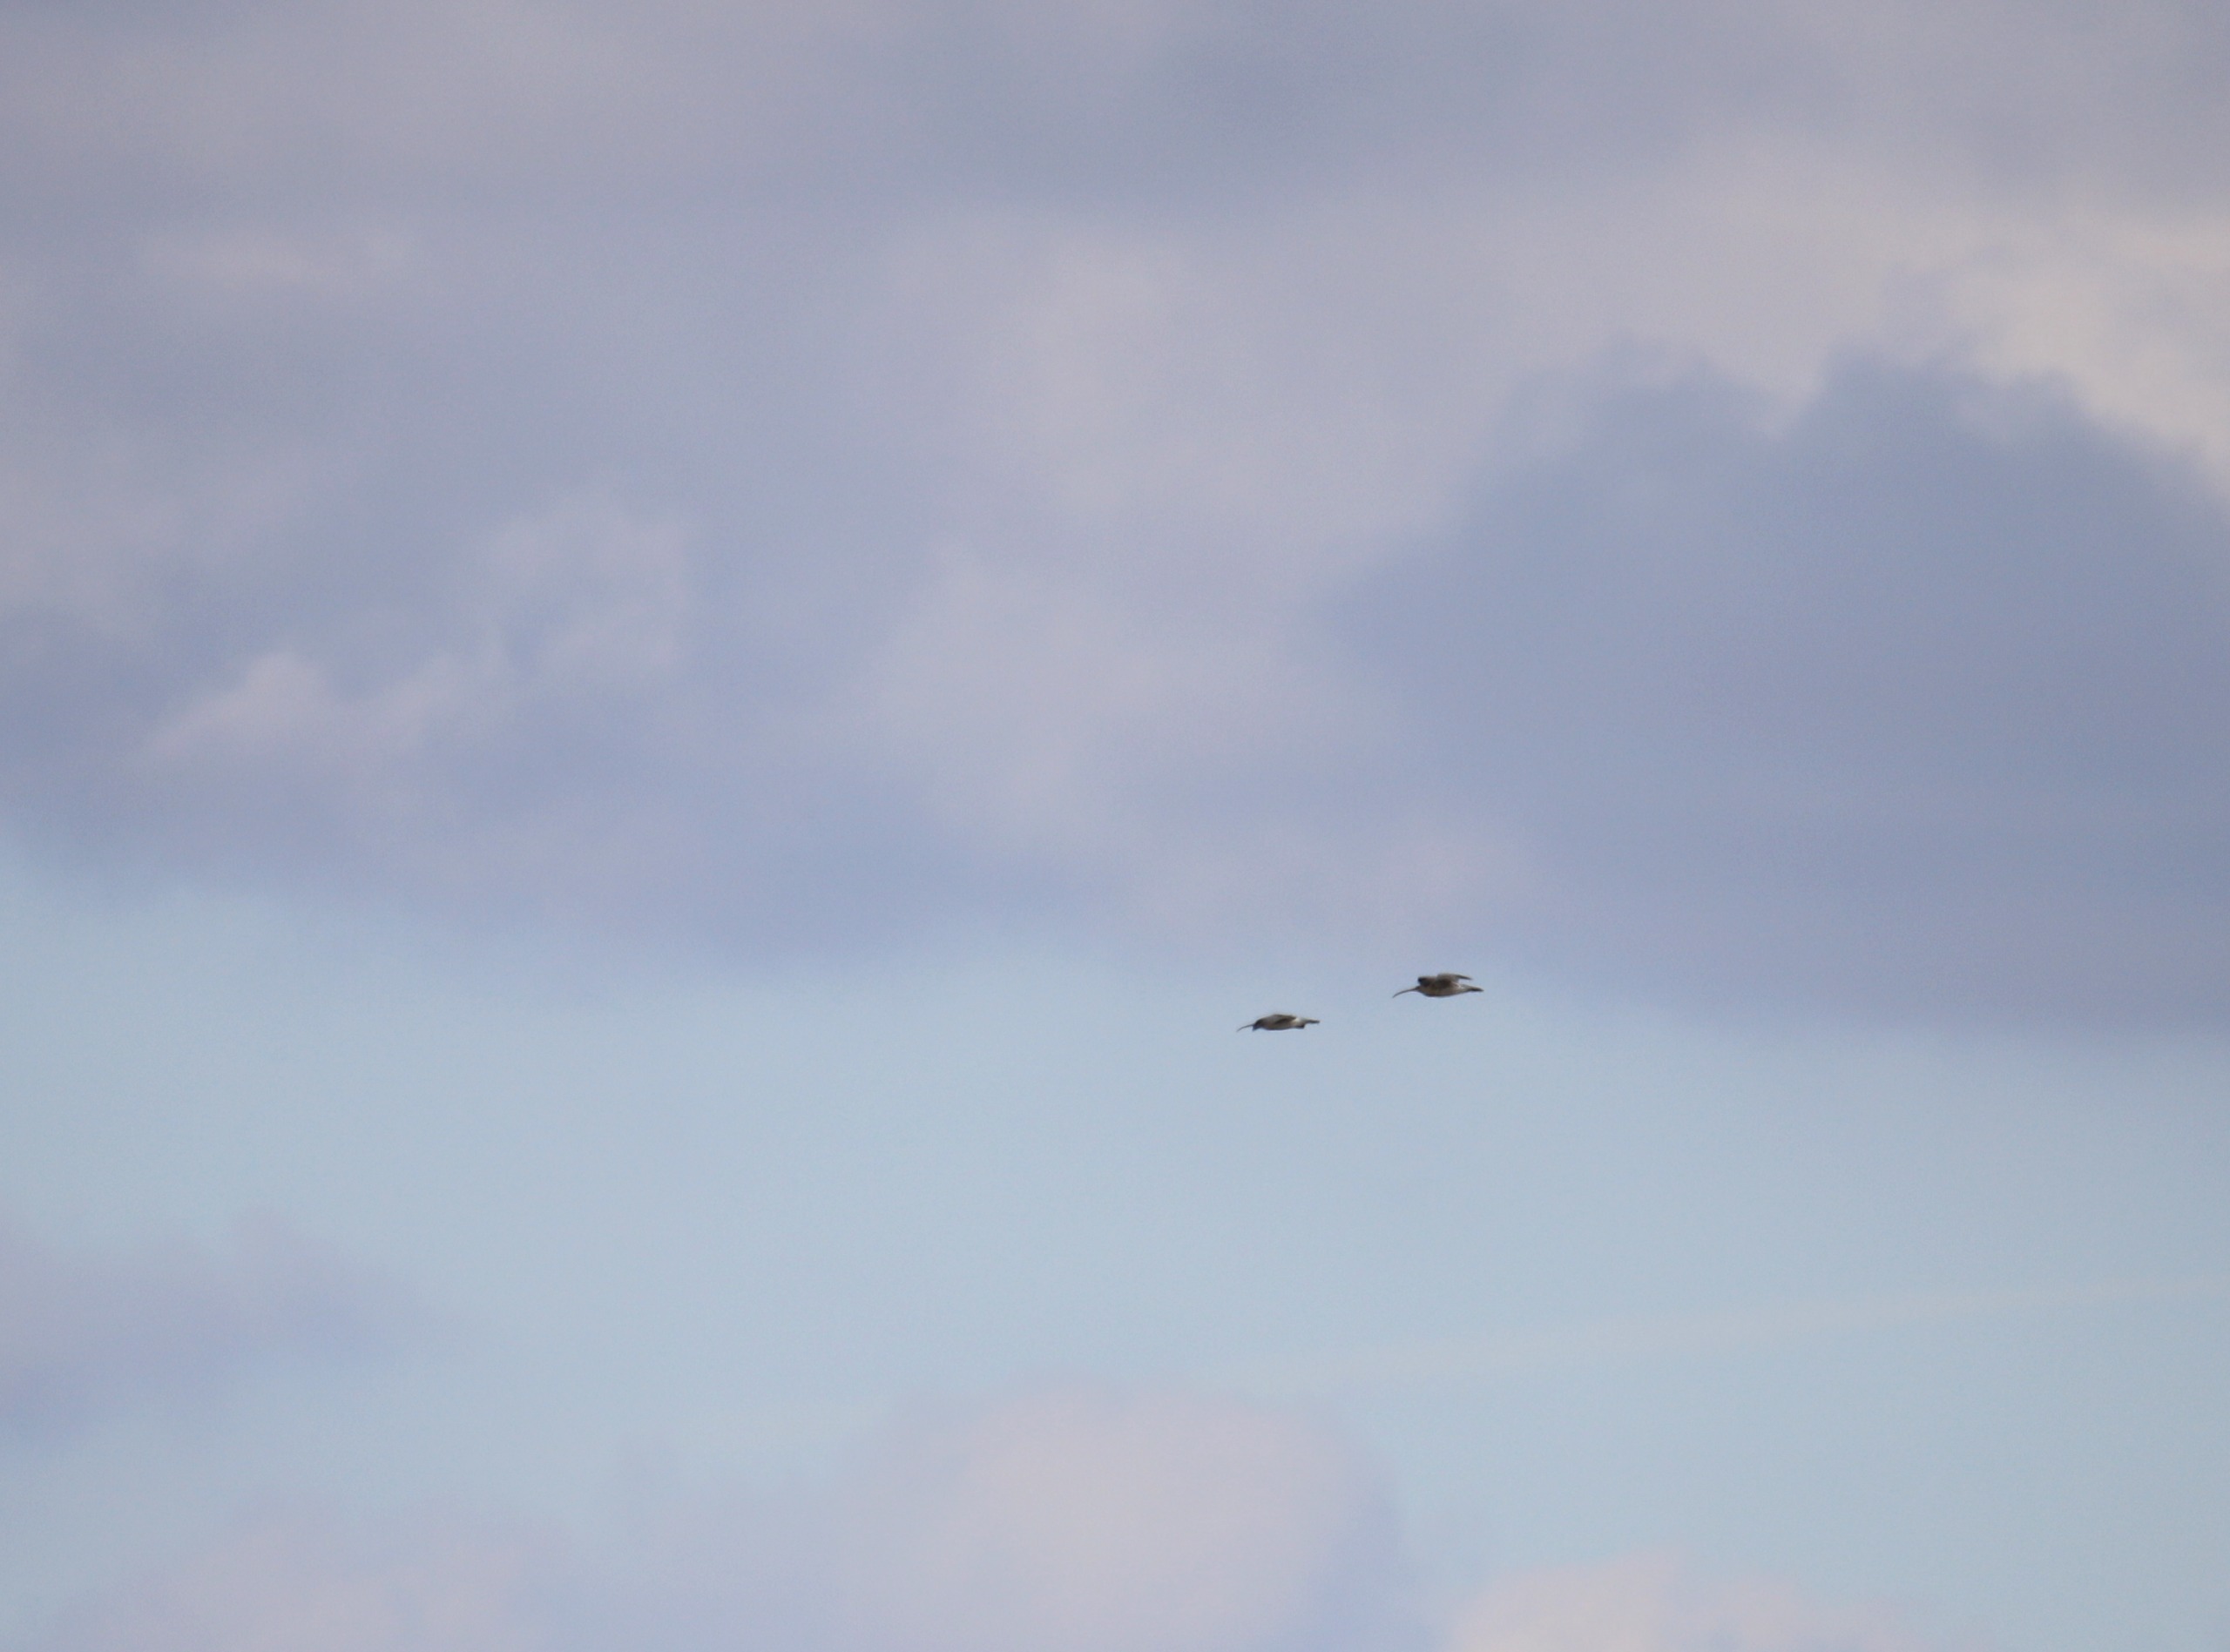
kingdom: Animalia
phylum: Chordata
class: Aves
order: Charadriiformes
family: Scolopacidae
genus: Numenius
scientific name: Numenius arquata
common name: Storspove
